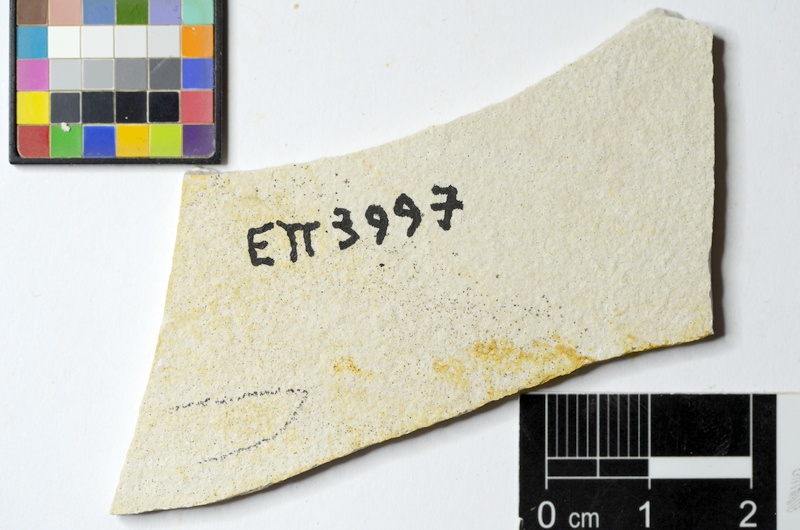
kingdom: Animalia
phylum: Chordata
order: Salmoniformes
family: Orthogonikleithridae
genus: Orthogonikleithrus
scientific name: Orthogonikleithrus hoelli
